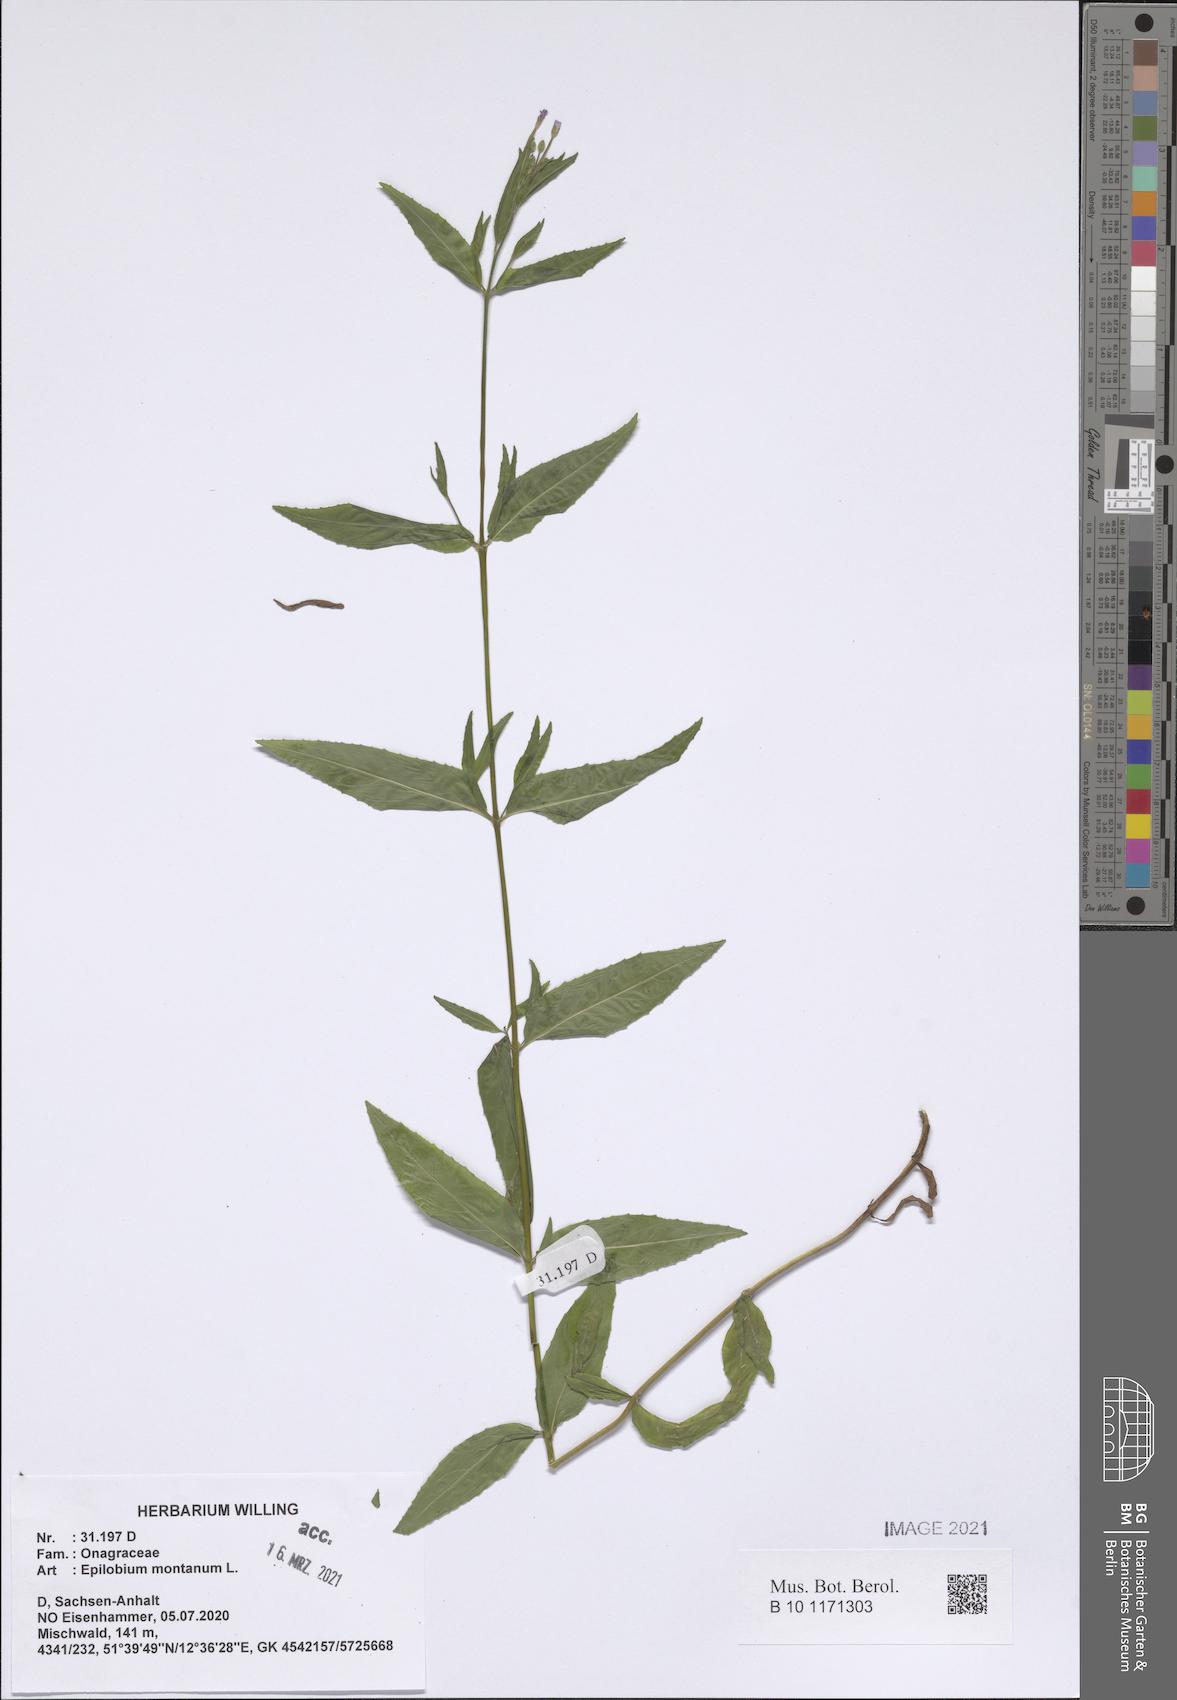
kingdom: Plantae
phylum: Tracheophyta
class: Magnoliopsida
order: Myrtales
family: Onagraceae
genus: Epilobium
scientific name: Epilobium montanum
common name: Broad-leaved willowherb
